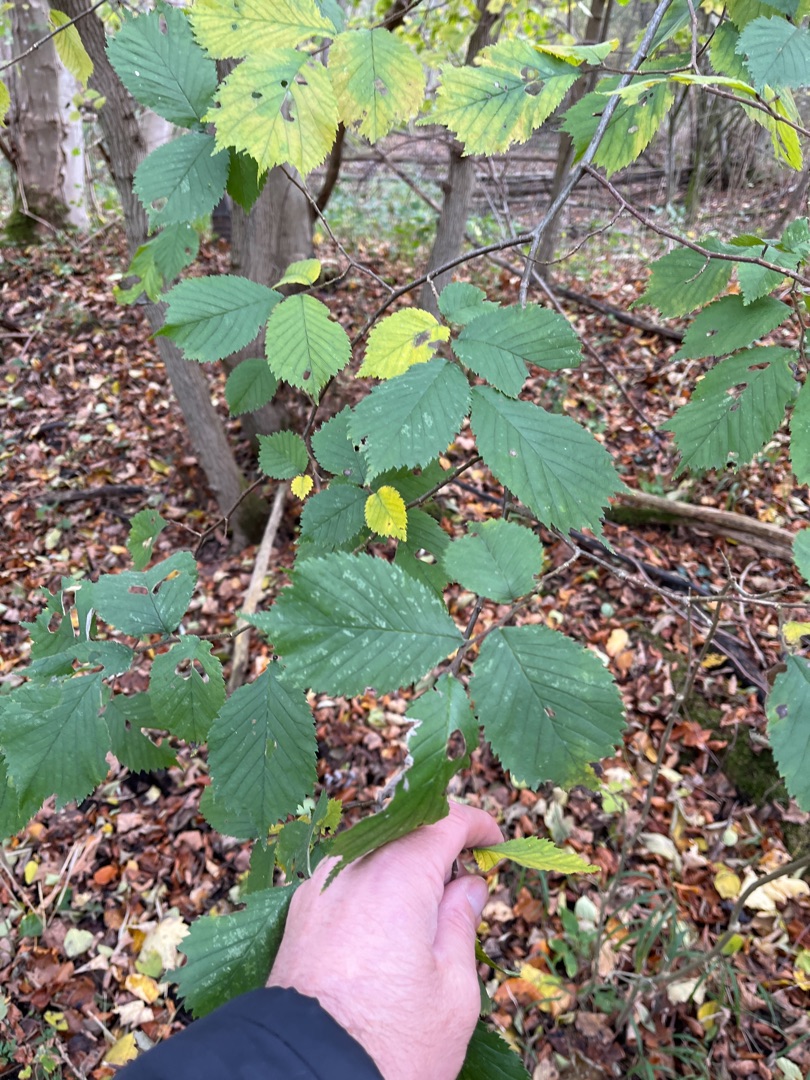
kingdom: Plantae
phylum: Tracheophyta
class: Magnoliopsida
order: Rosales
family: Ulmaceae
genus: Ulmus
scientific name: Ulmus glabra
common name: Skov-elm/storbladet elm
